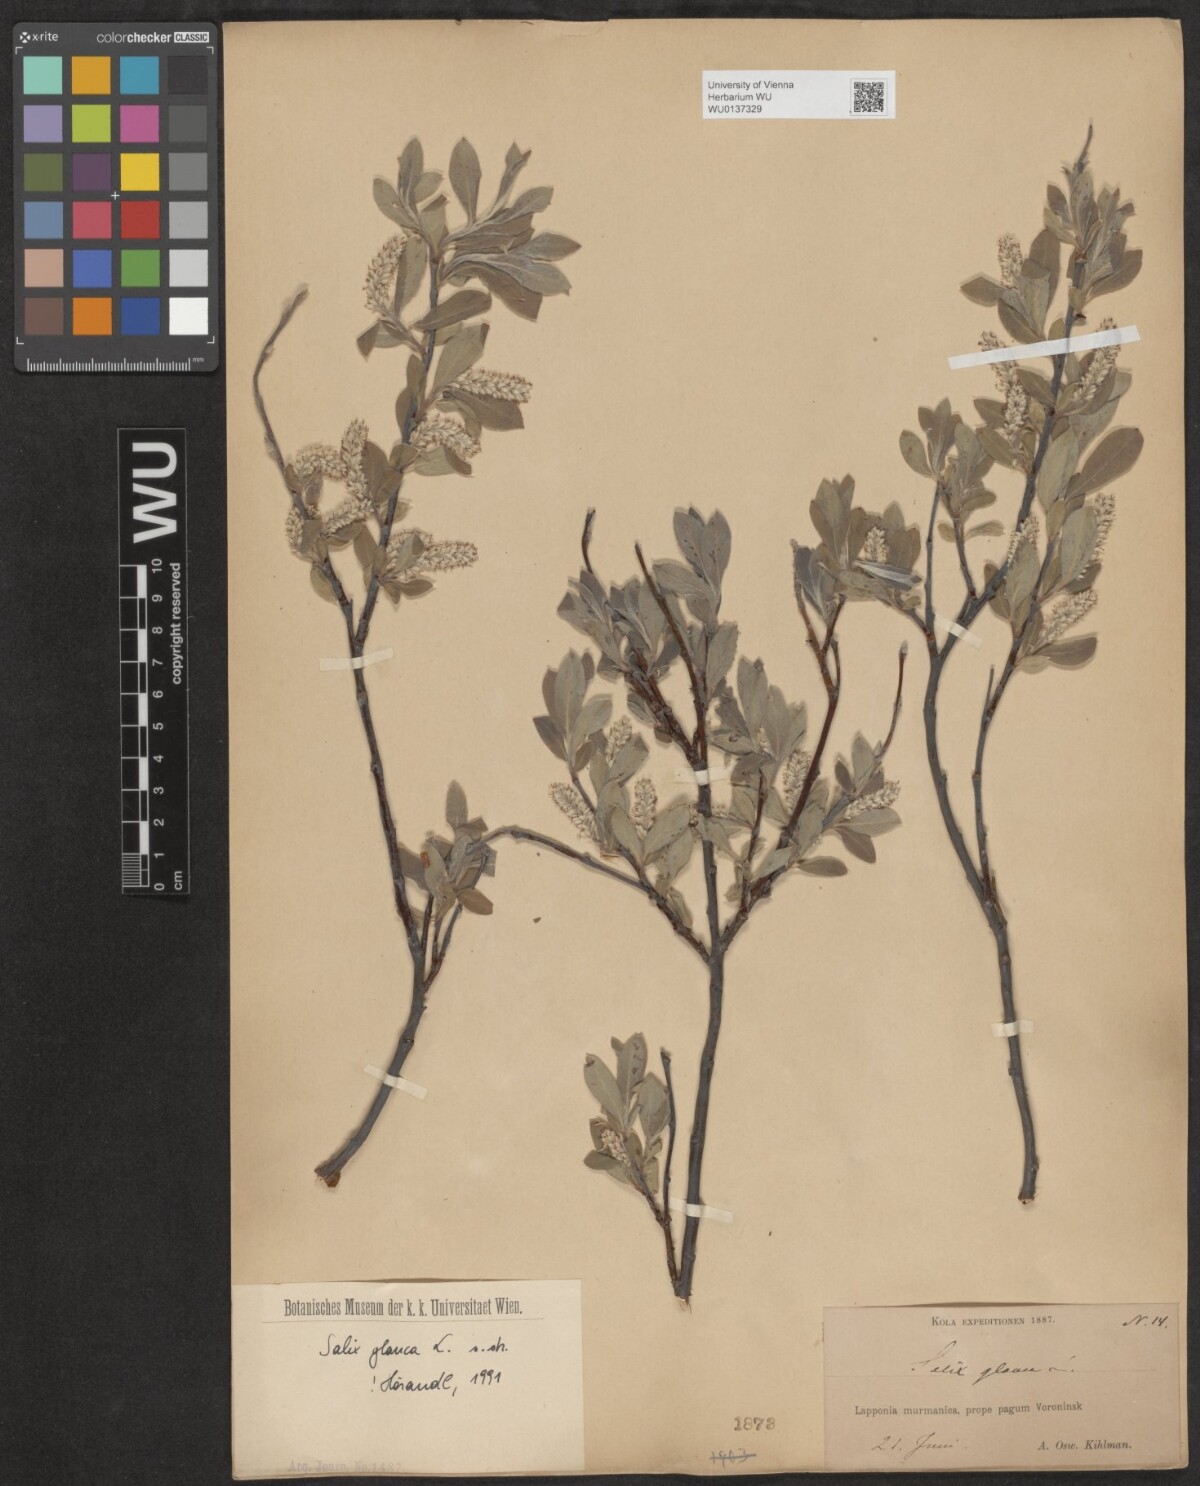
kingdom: Plantae
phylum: Tracheophyta
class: Magnoliopsida
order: Malpighiales
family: Salicaceae
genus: Salix
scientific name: Salix glauca
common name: Glaucous willow
